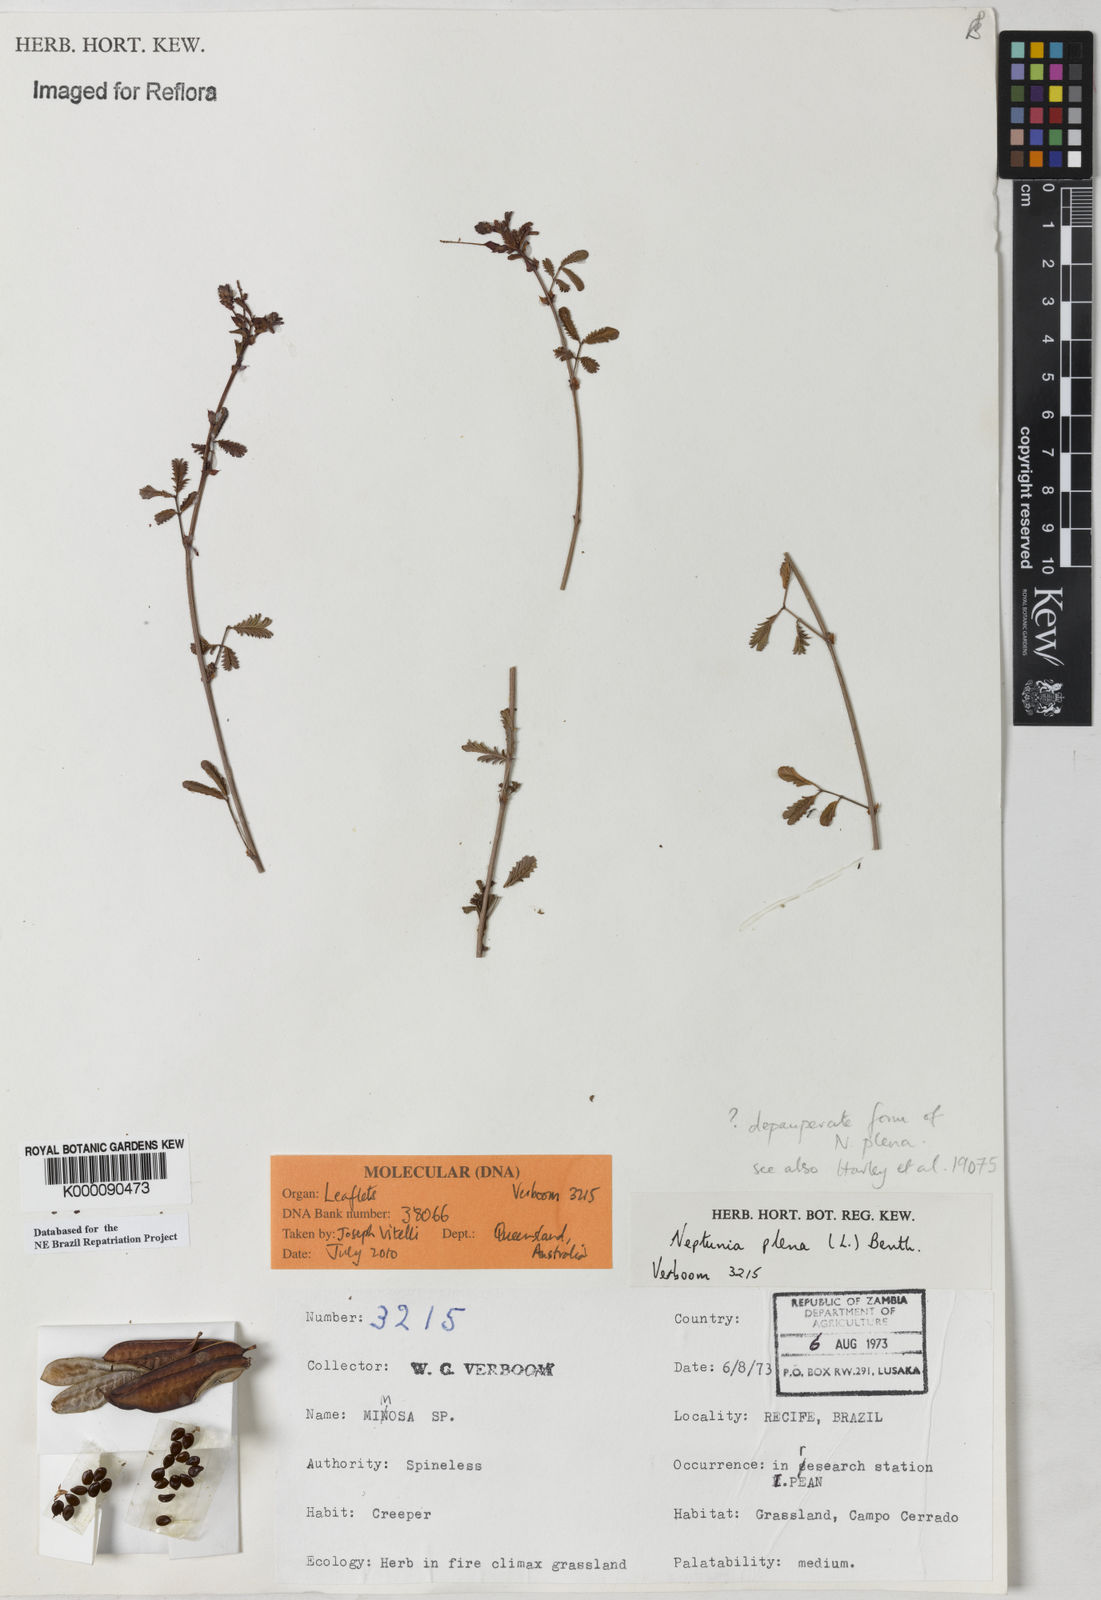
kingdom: Plantae
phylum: Tracheophyta
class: Magnoliopsida
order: Fabales
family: Fabaceae
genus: Neptunia
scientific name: Neptunia plena
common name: Dead and awake
